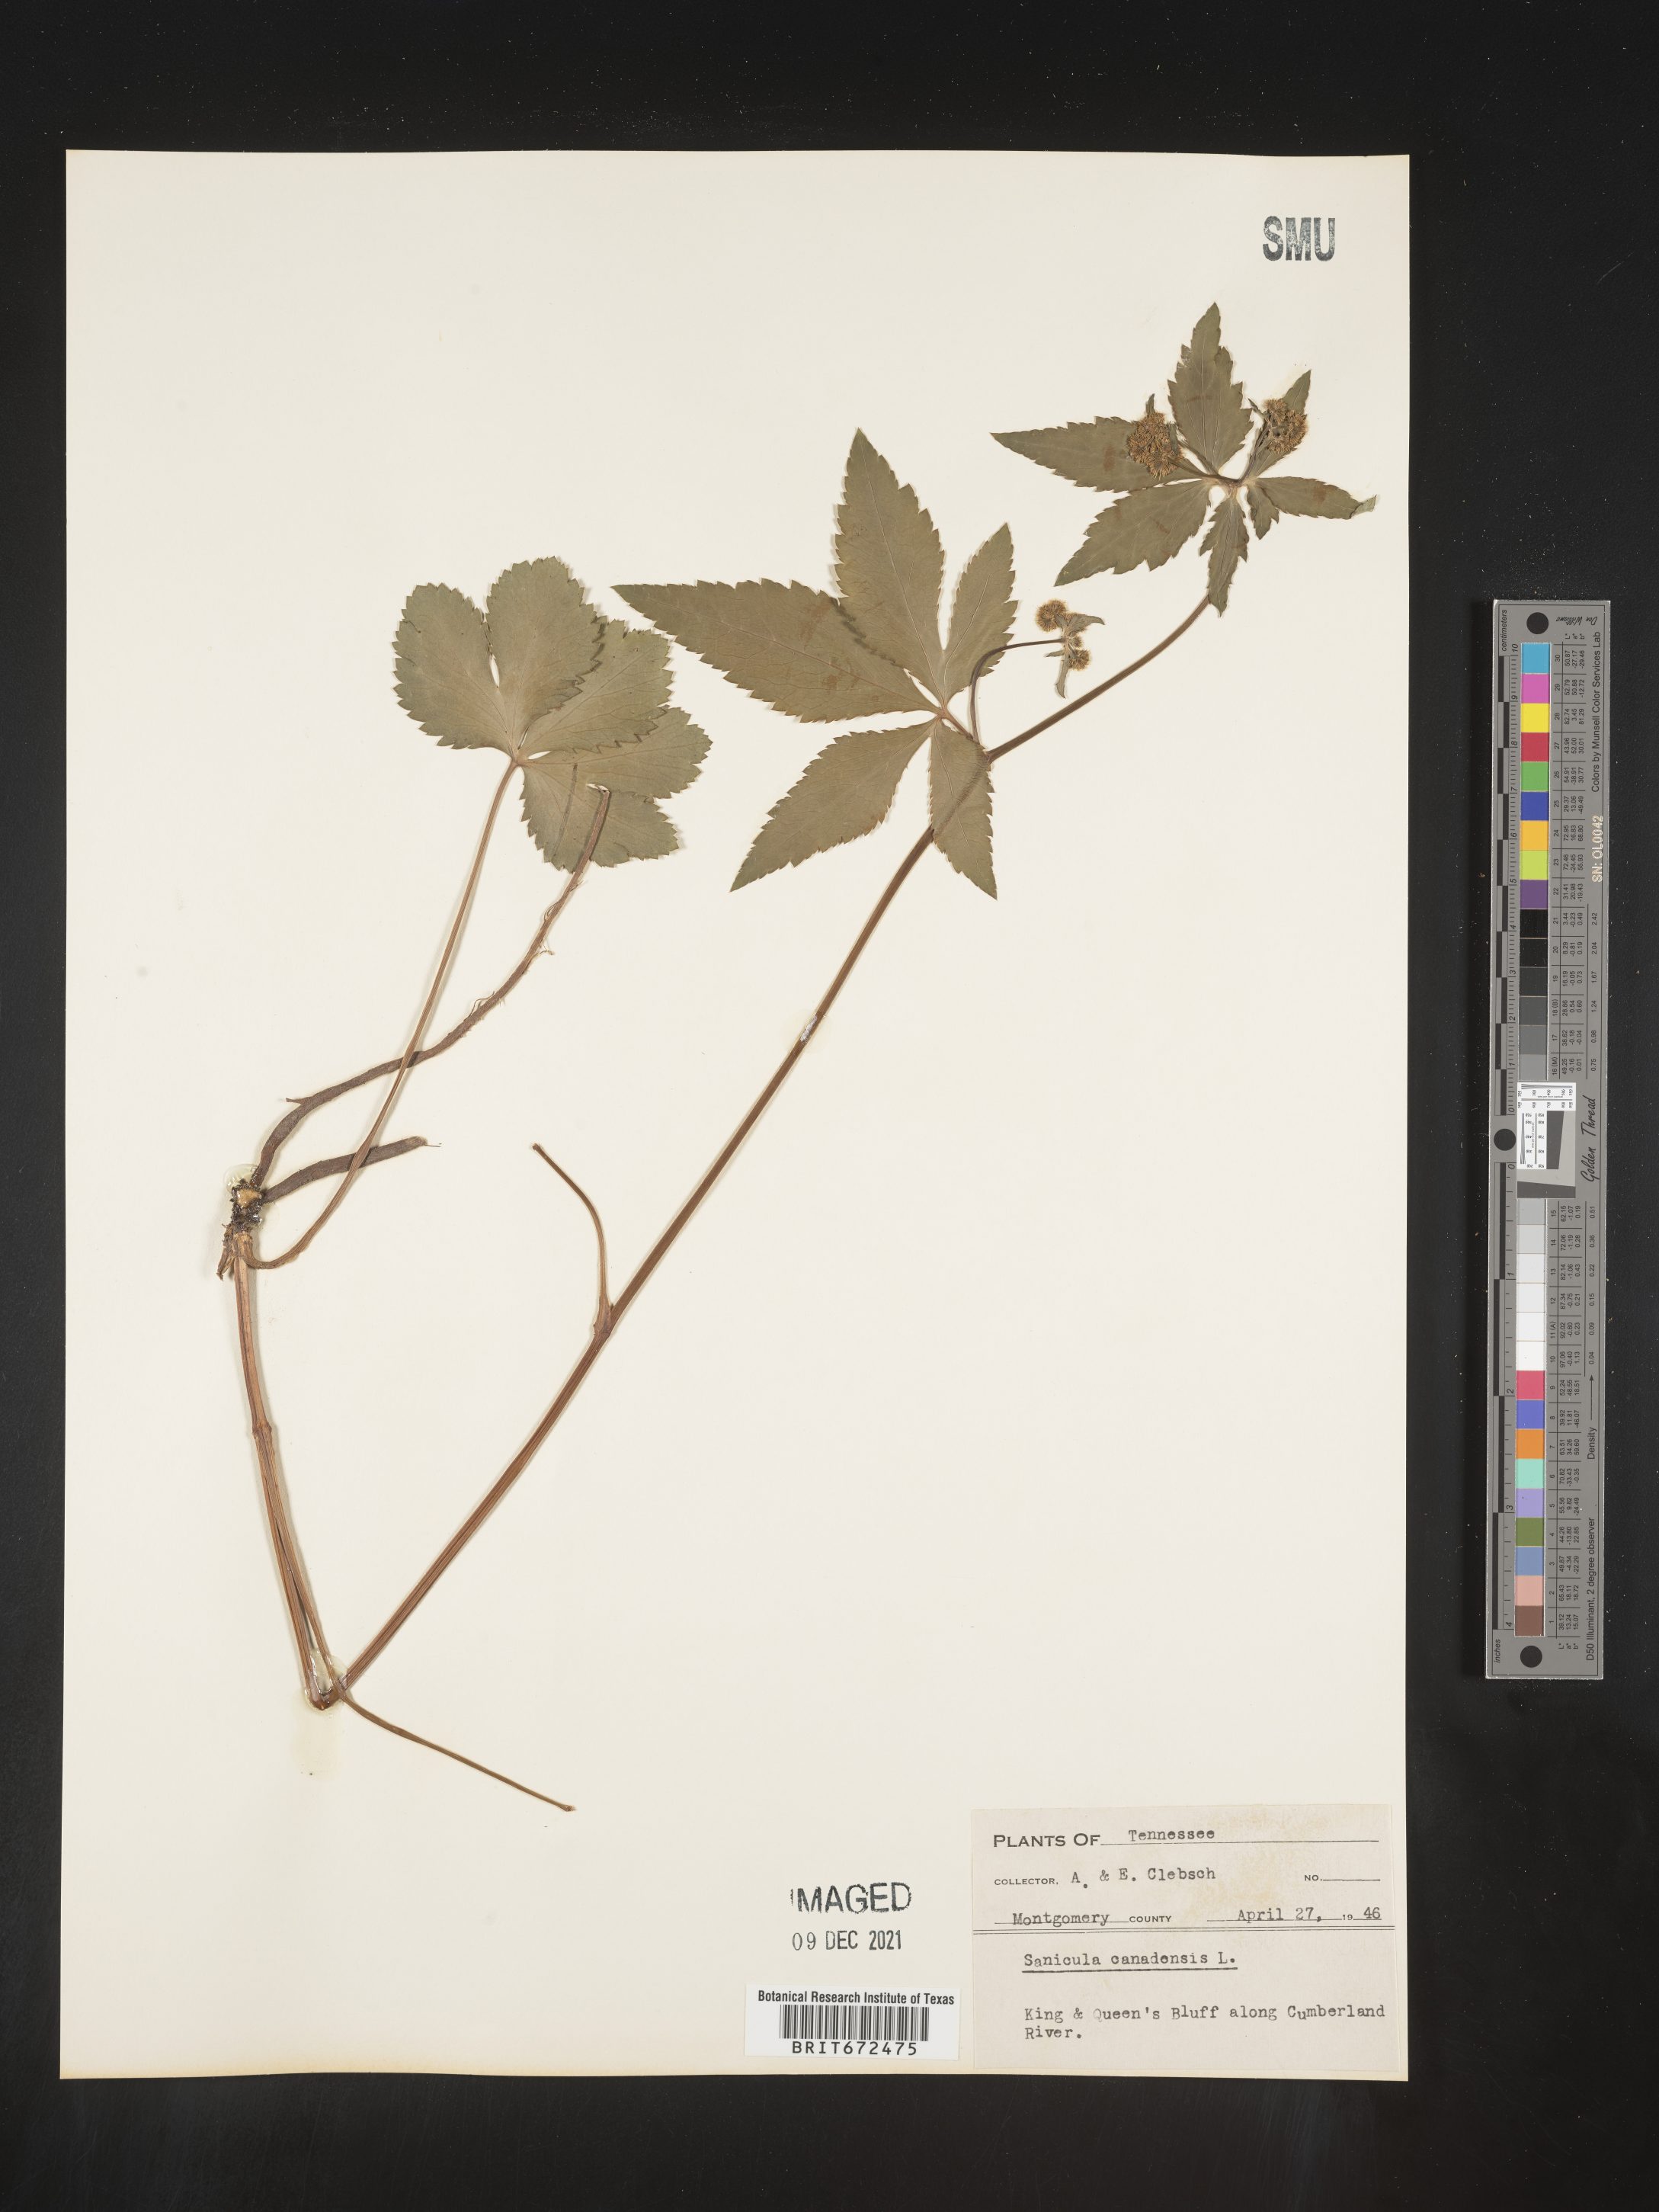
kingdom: Plantae
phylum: Tracheophyta
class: Magnoliopsida
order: Apiales
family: Apiaceae
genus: Sanicula
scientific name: Sanicula canadensis
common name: Canada sanicle
